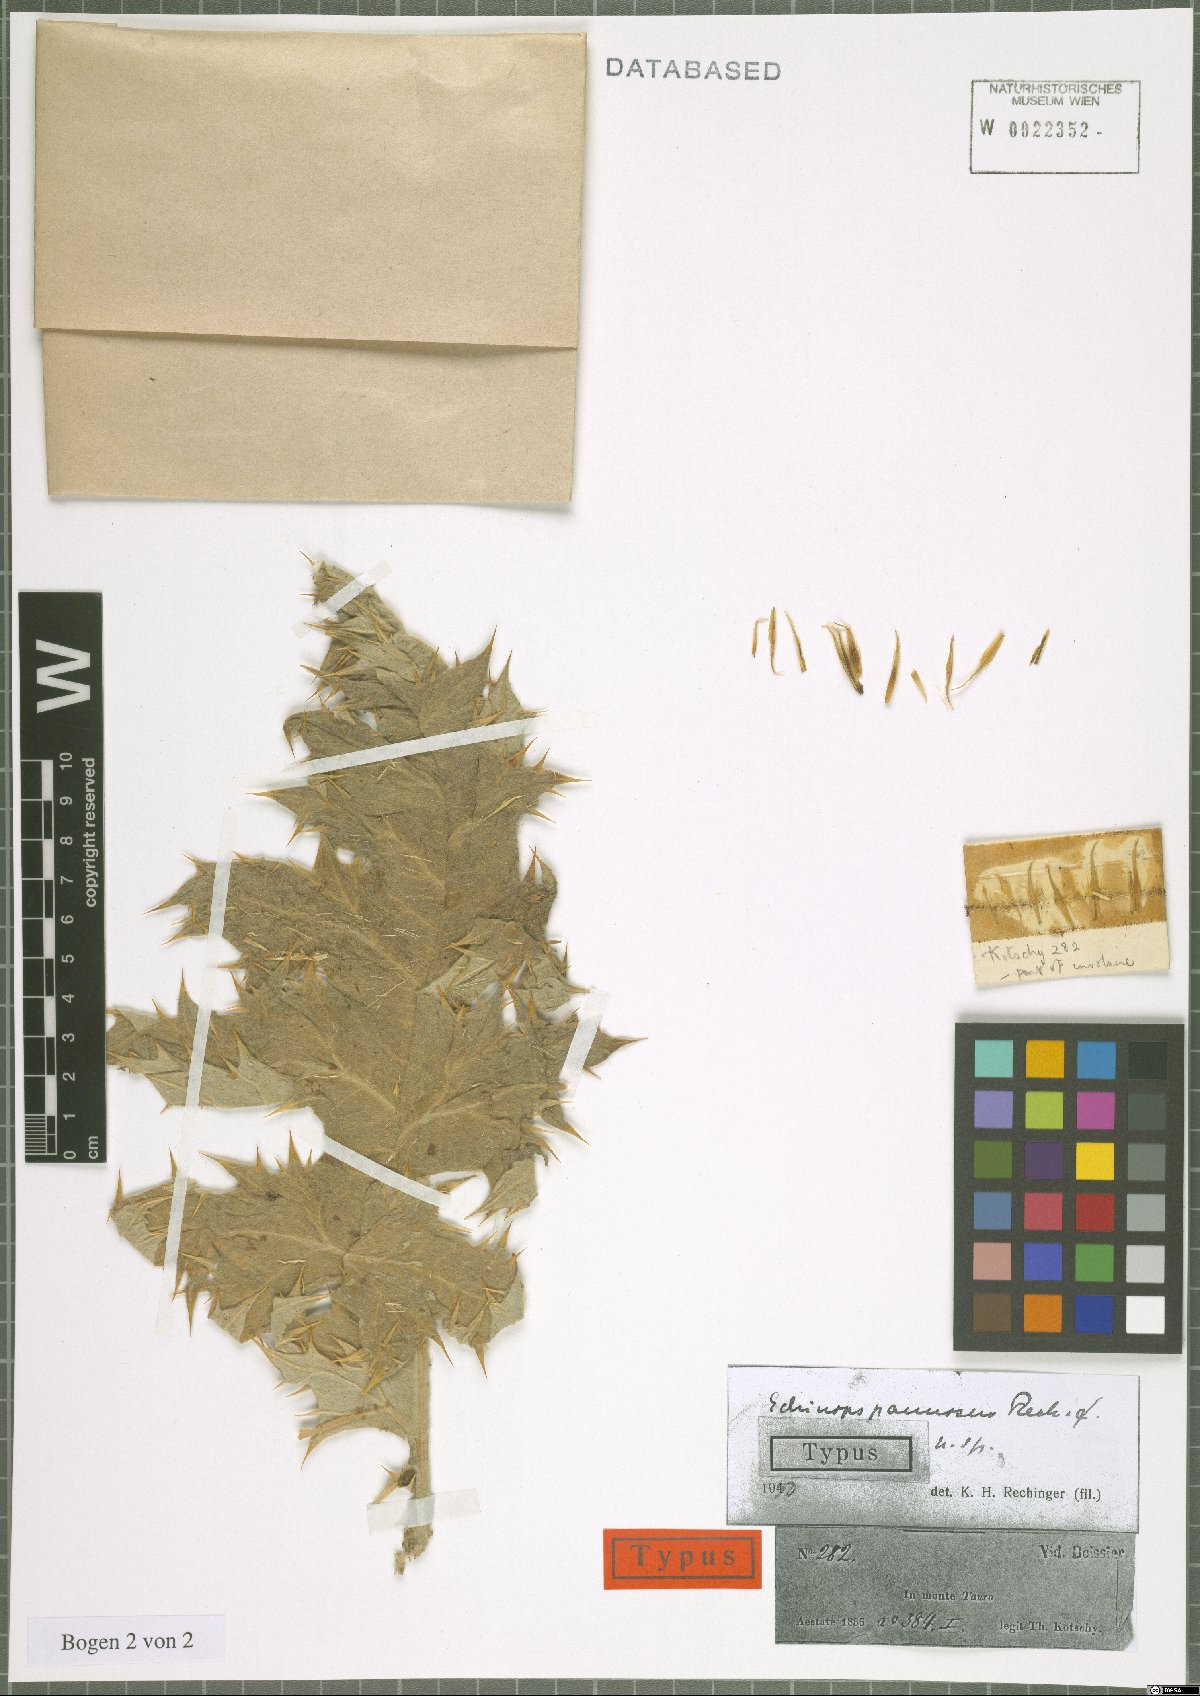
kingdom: Plantae
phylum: Tracheophyta
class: Magnoliopsida
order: Asterales
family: Asteraceae
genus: Echinops
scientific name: Echinops pannosus
